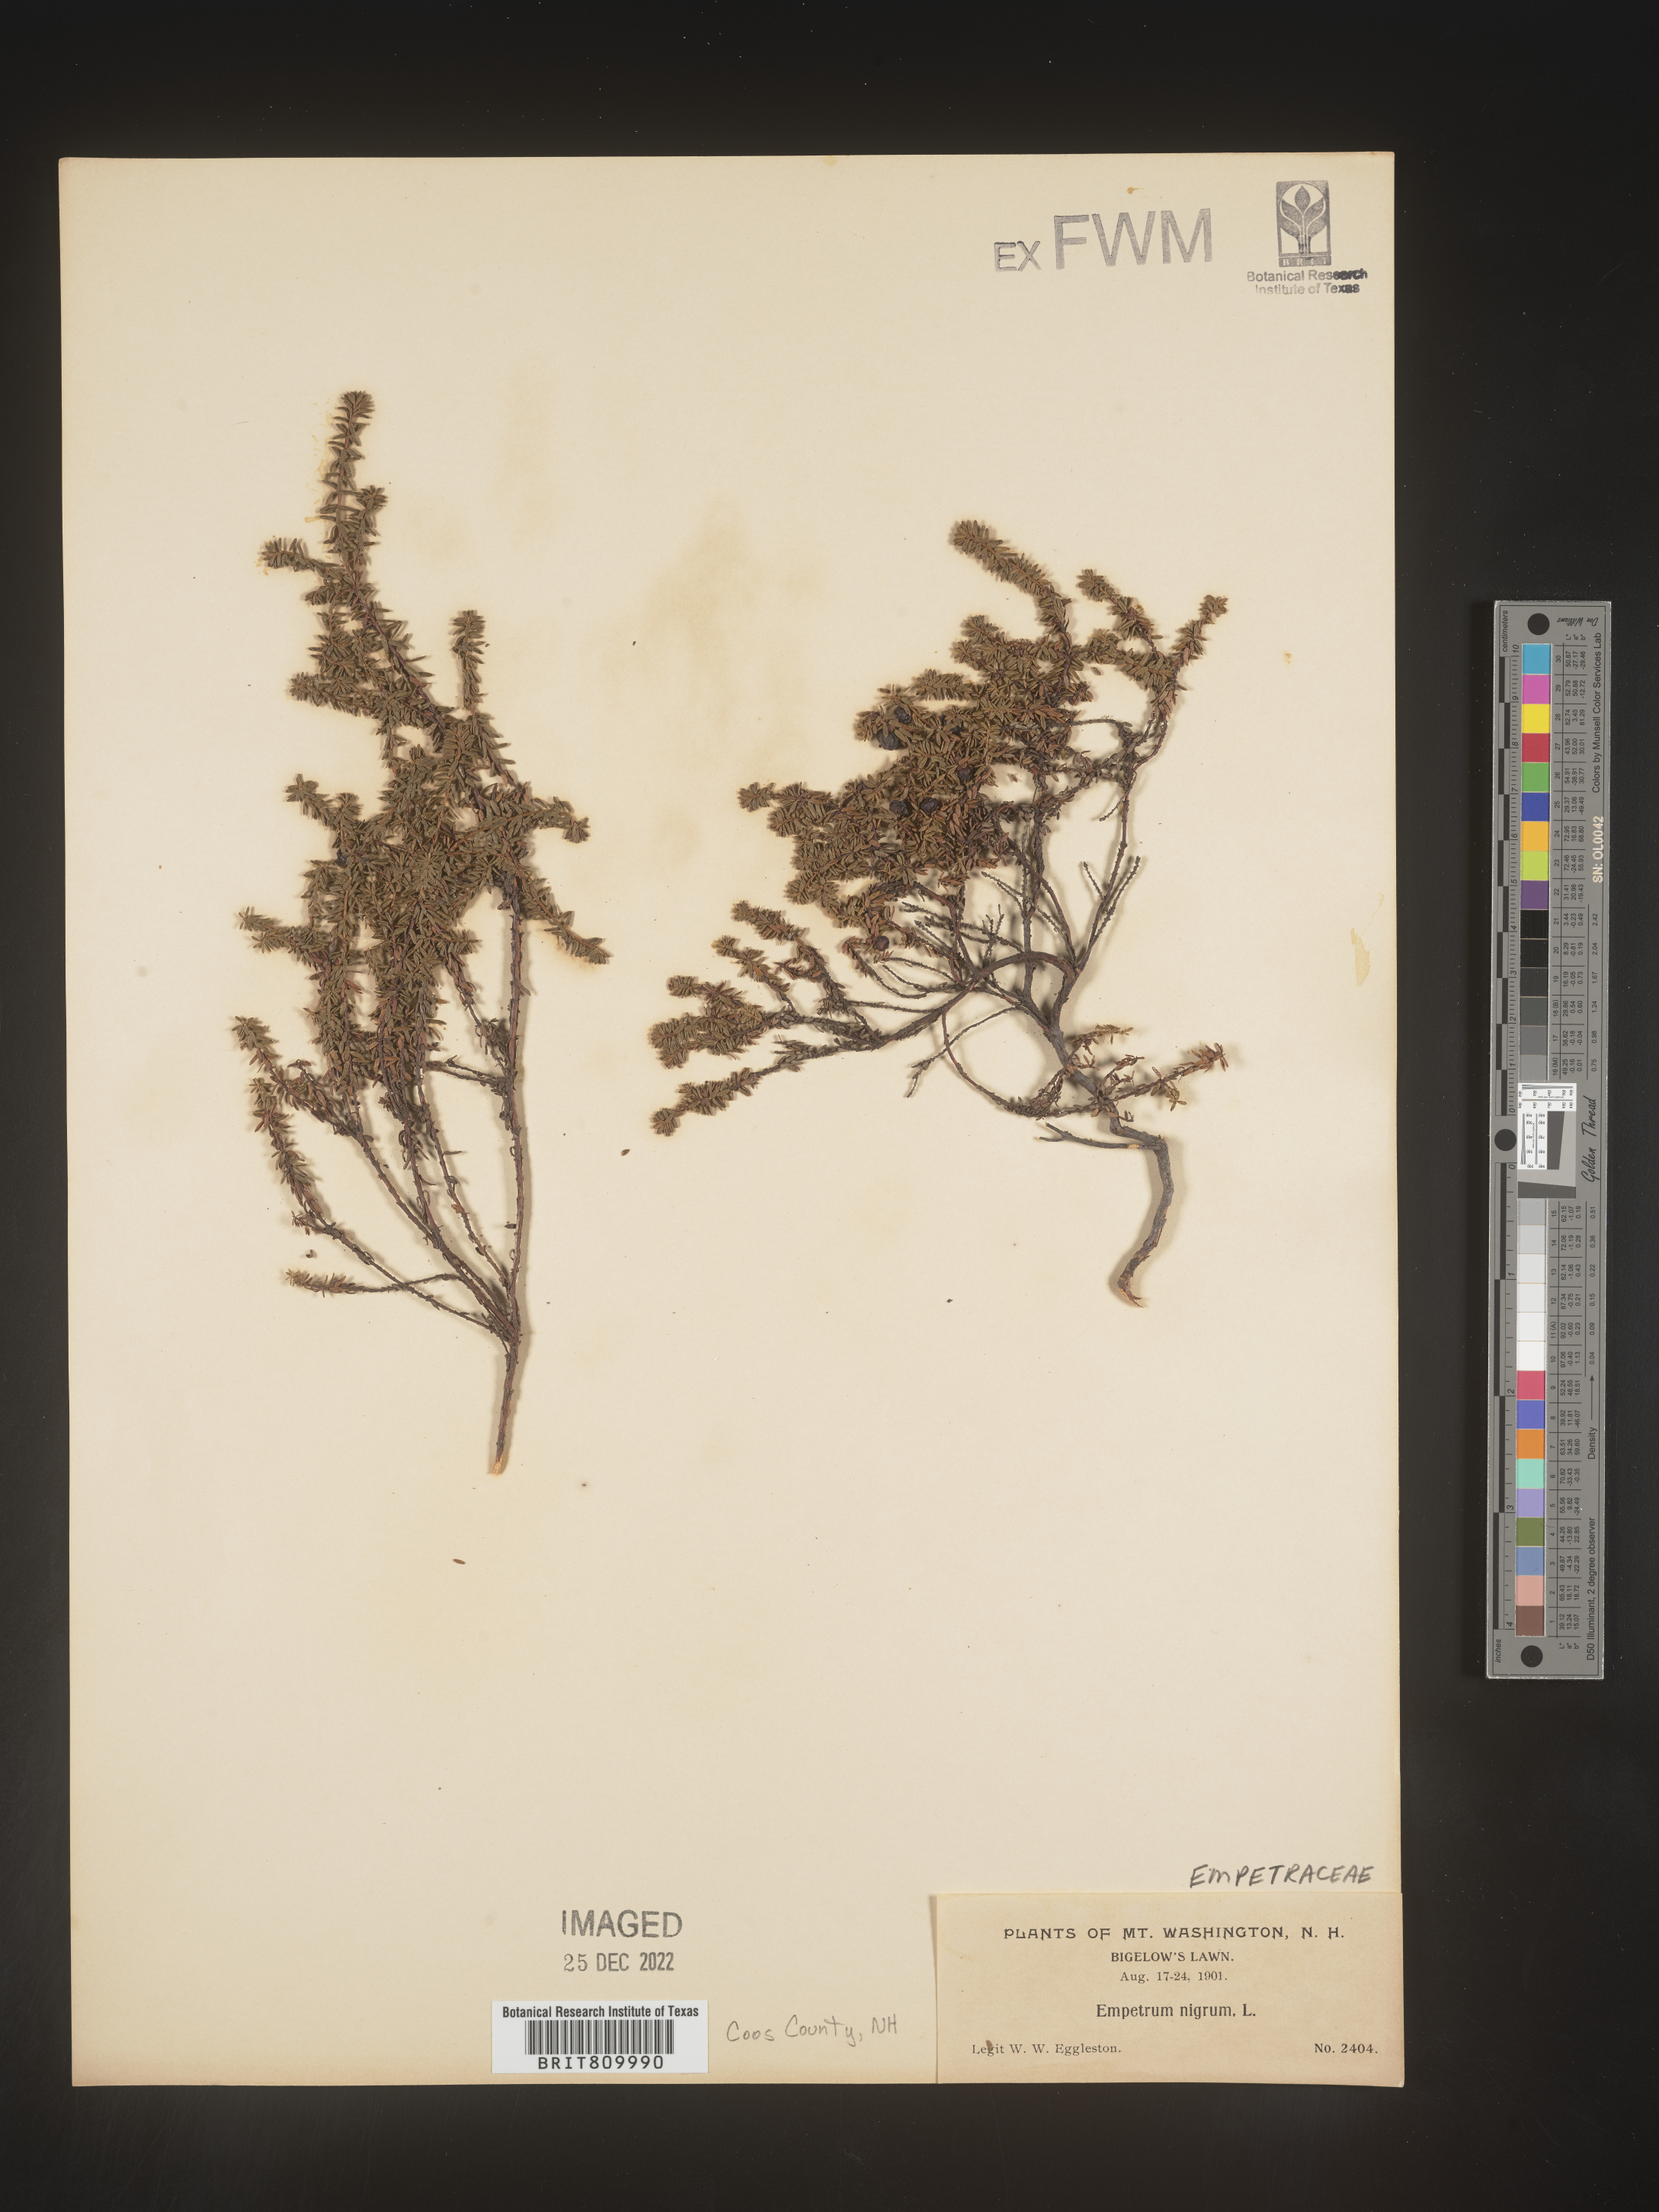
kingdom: Plantae
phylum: Tracheophyta
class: Magnoliopsida
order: Ericales
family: Ericaceae
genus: Empetrum
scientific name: Empetrum
